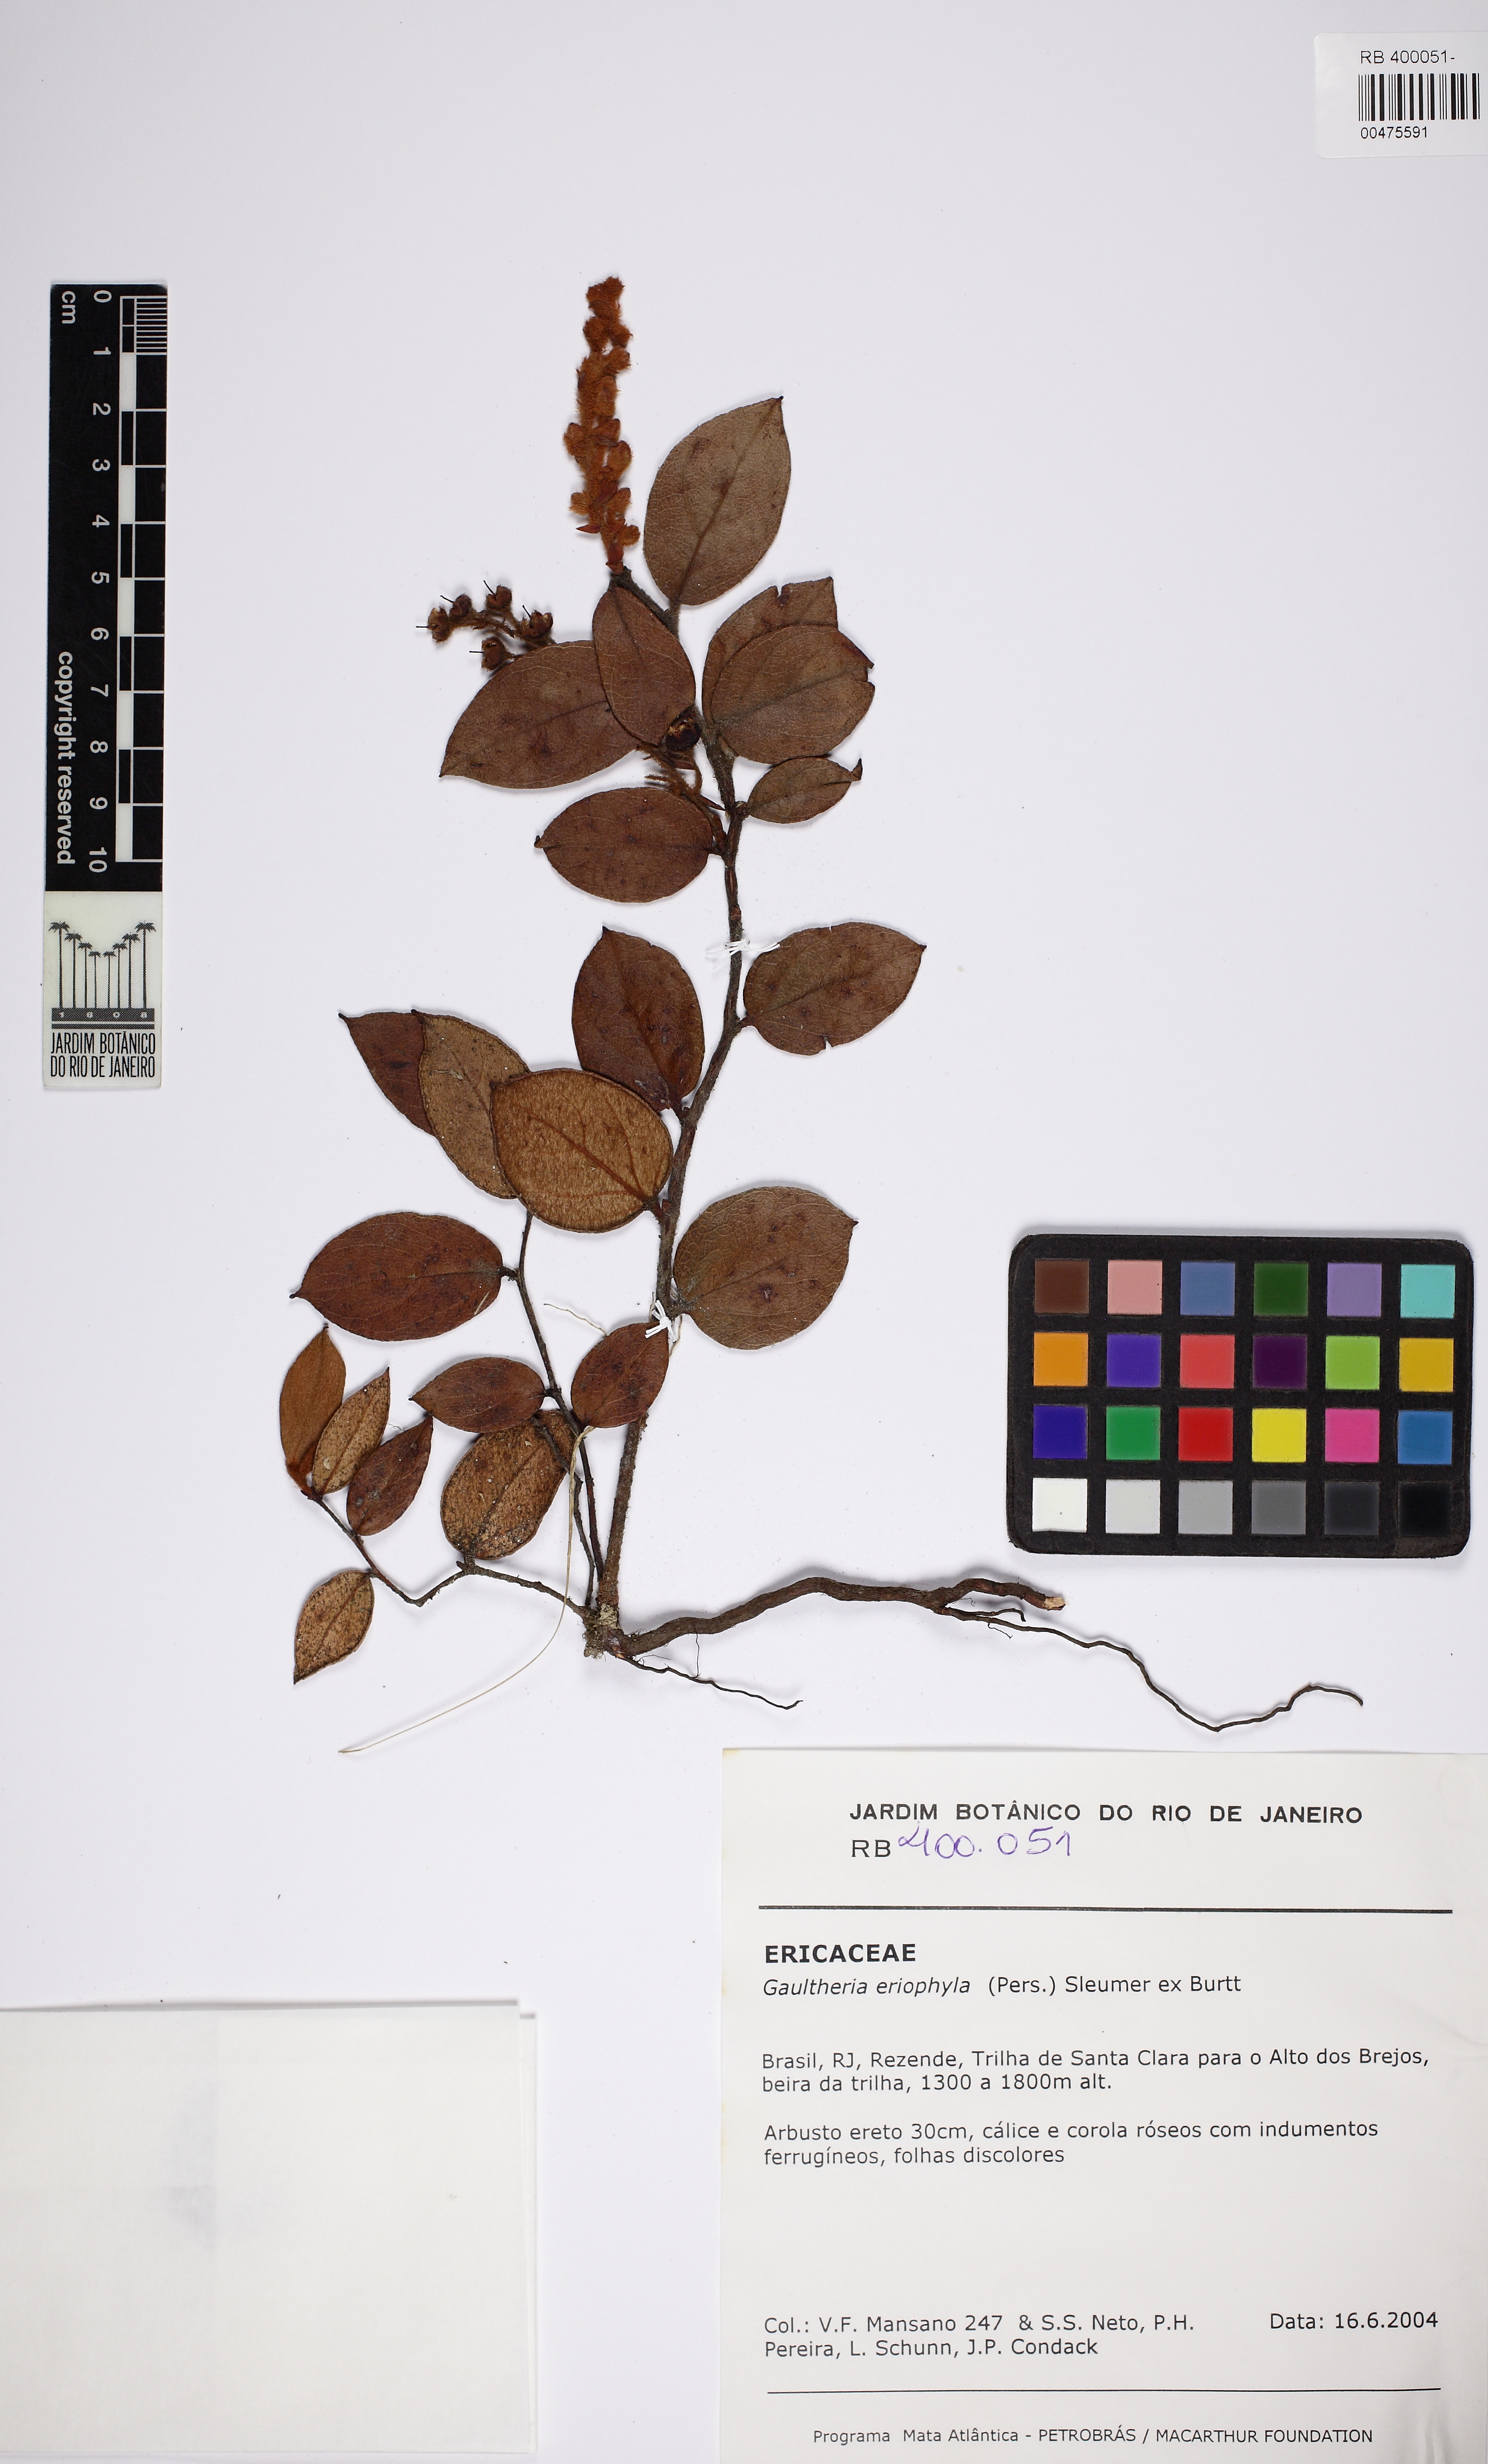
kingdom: Plantae
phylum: Tracheophyta
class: Magnoliopsida
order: Ericales
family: Ericaceae
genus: Gaultheria
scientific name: Gaultheria eriophylla
